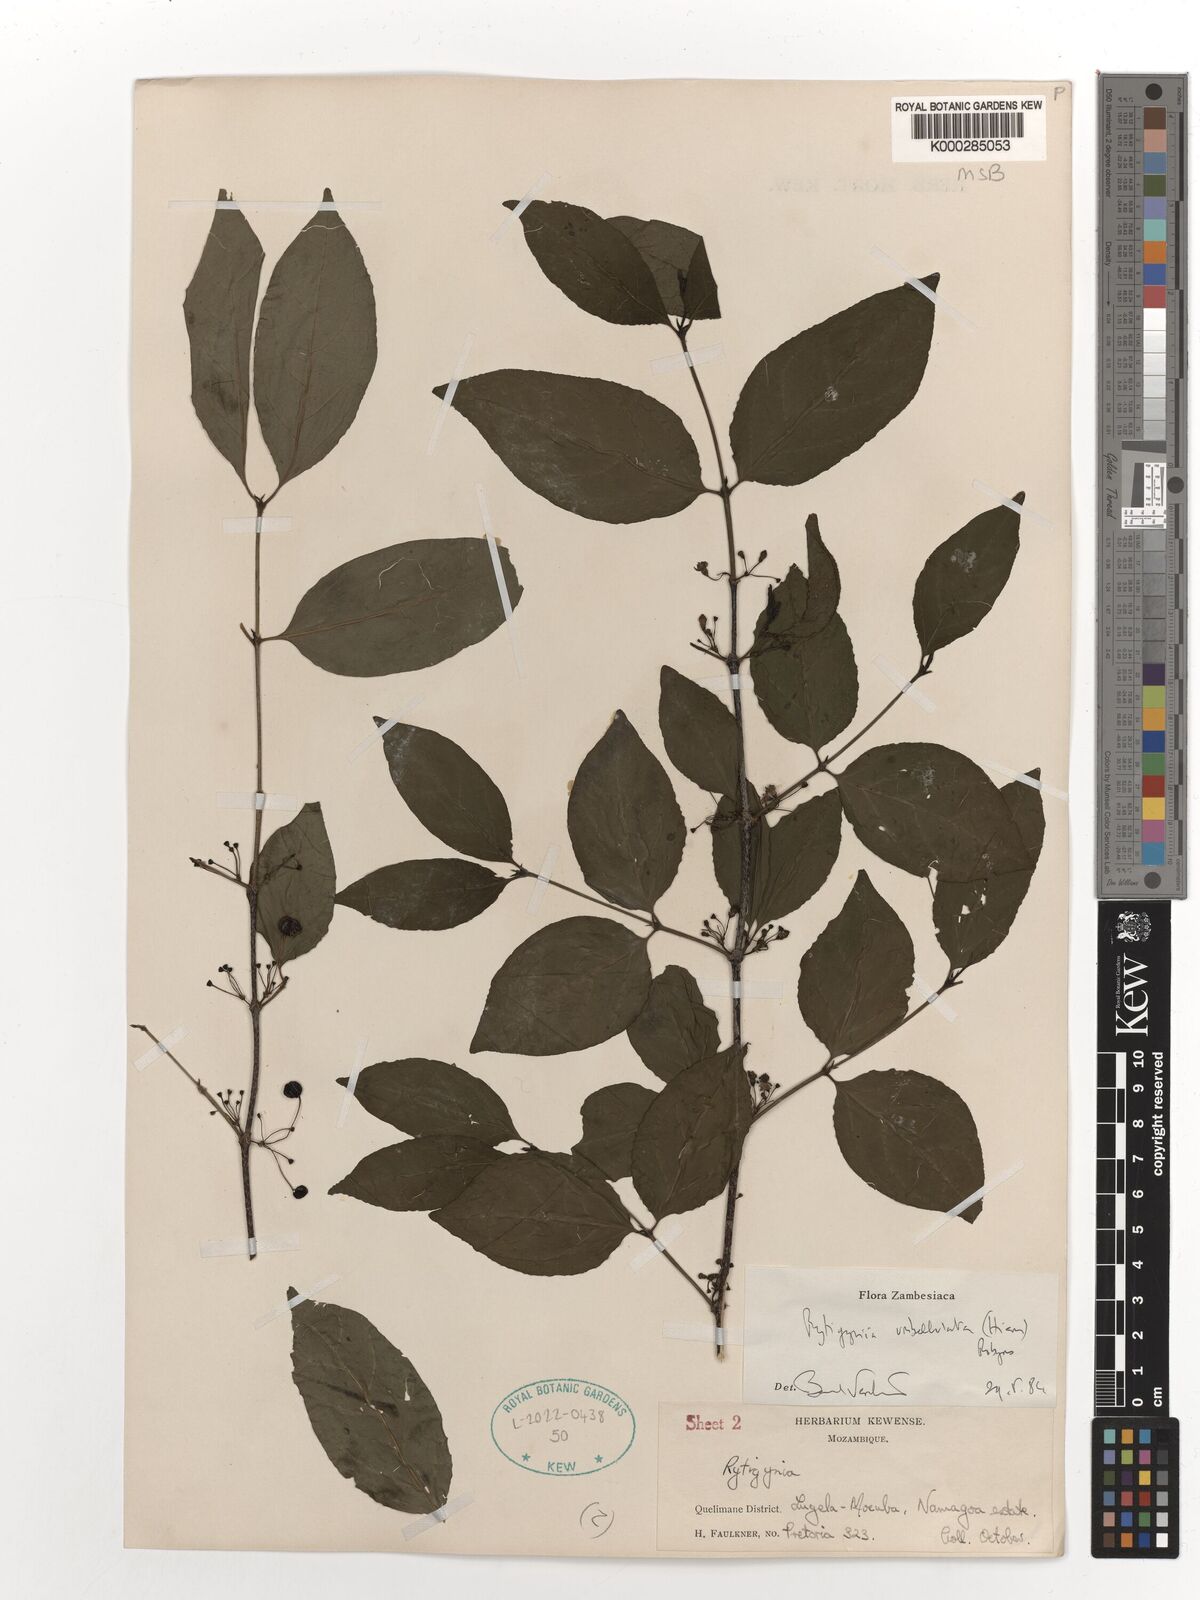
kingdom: Plantae
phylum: Tracheophyta
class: Magnoliopsida
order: Gentianales
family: Rubiaceae
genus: Rytigynia
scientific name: Rytigynia umbellulata
